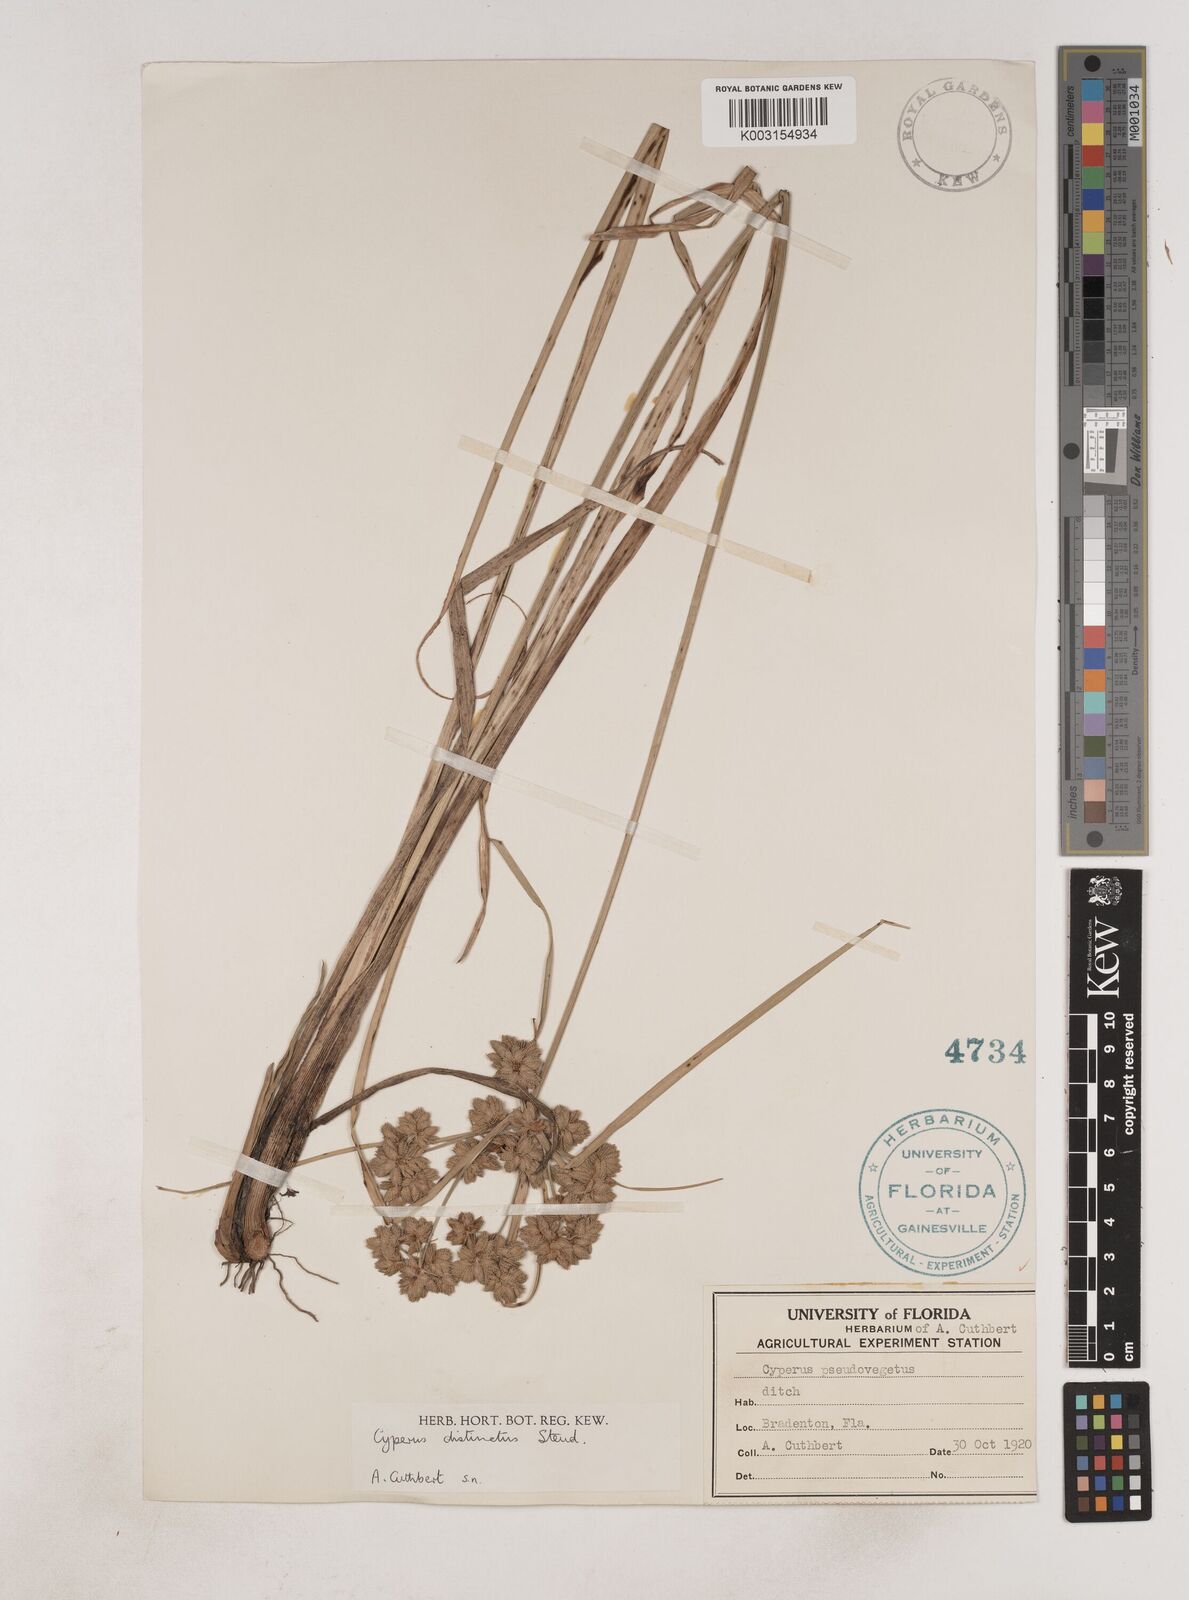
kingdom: Plantae
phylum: Tracheophyta
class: Liliopsida
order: Poales
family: Cyperaceae
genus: Cyperus
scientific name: Cyperus distinctus
